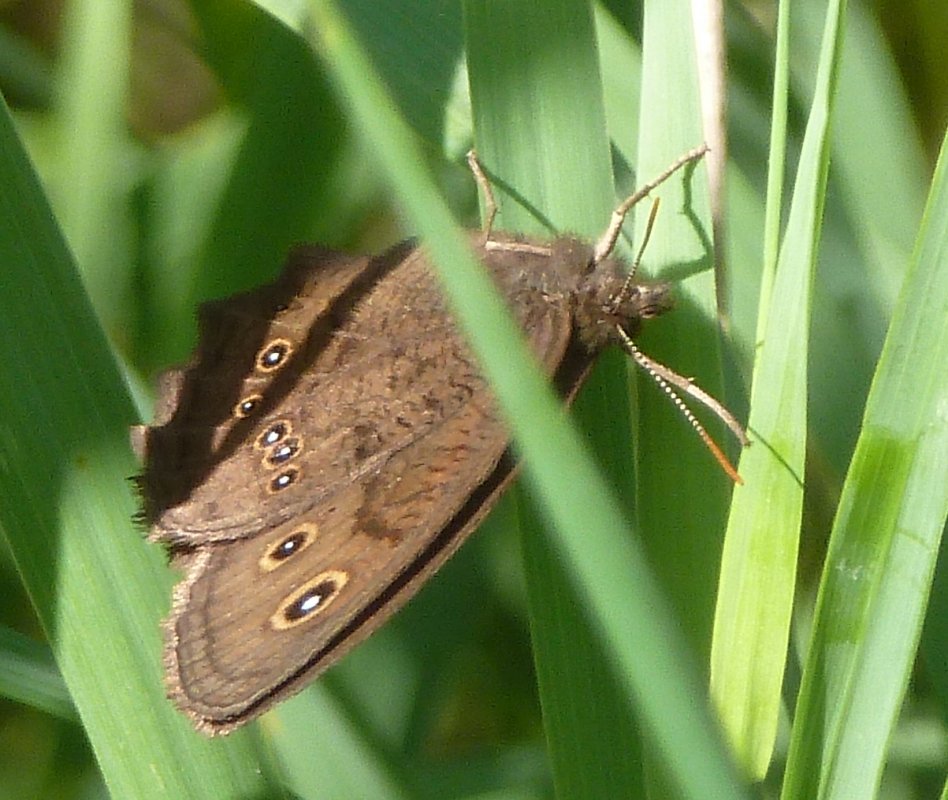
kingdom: Animalia
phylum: Arthropoda
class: Insecta
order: Lepidoptera
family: Nymphalidae
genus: Cercyonis
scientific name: Cercyonis pegala
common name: Common Wood-Nymph
